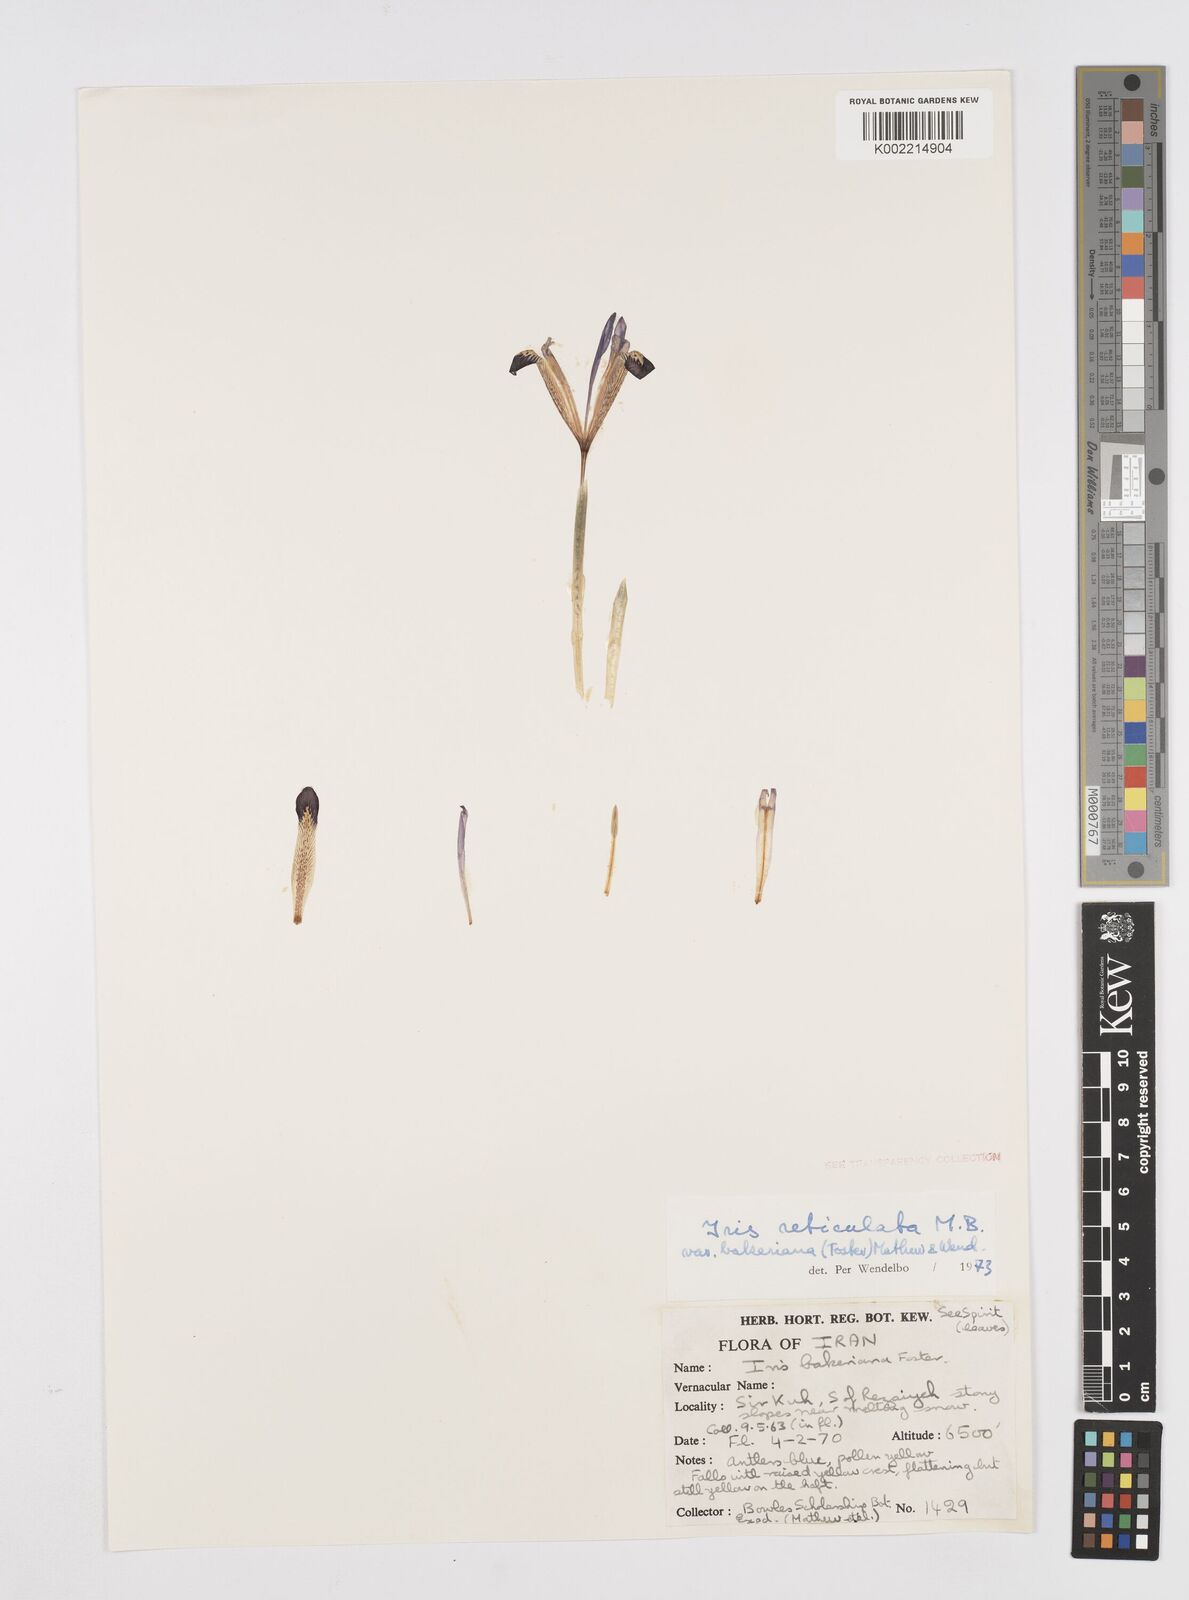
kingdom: Plantae
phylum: Tracheophyta
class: Liliopsida
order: Asparagales
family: Iridaceae
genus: Iris
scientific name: Iris reticulata
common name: Netted iris
